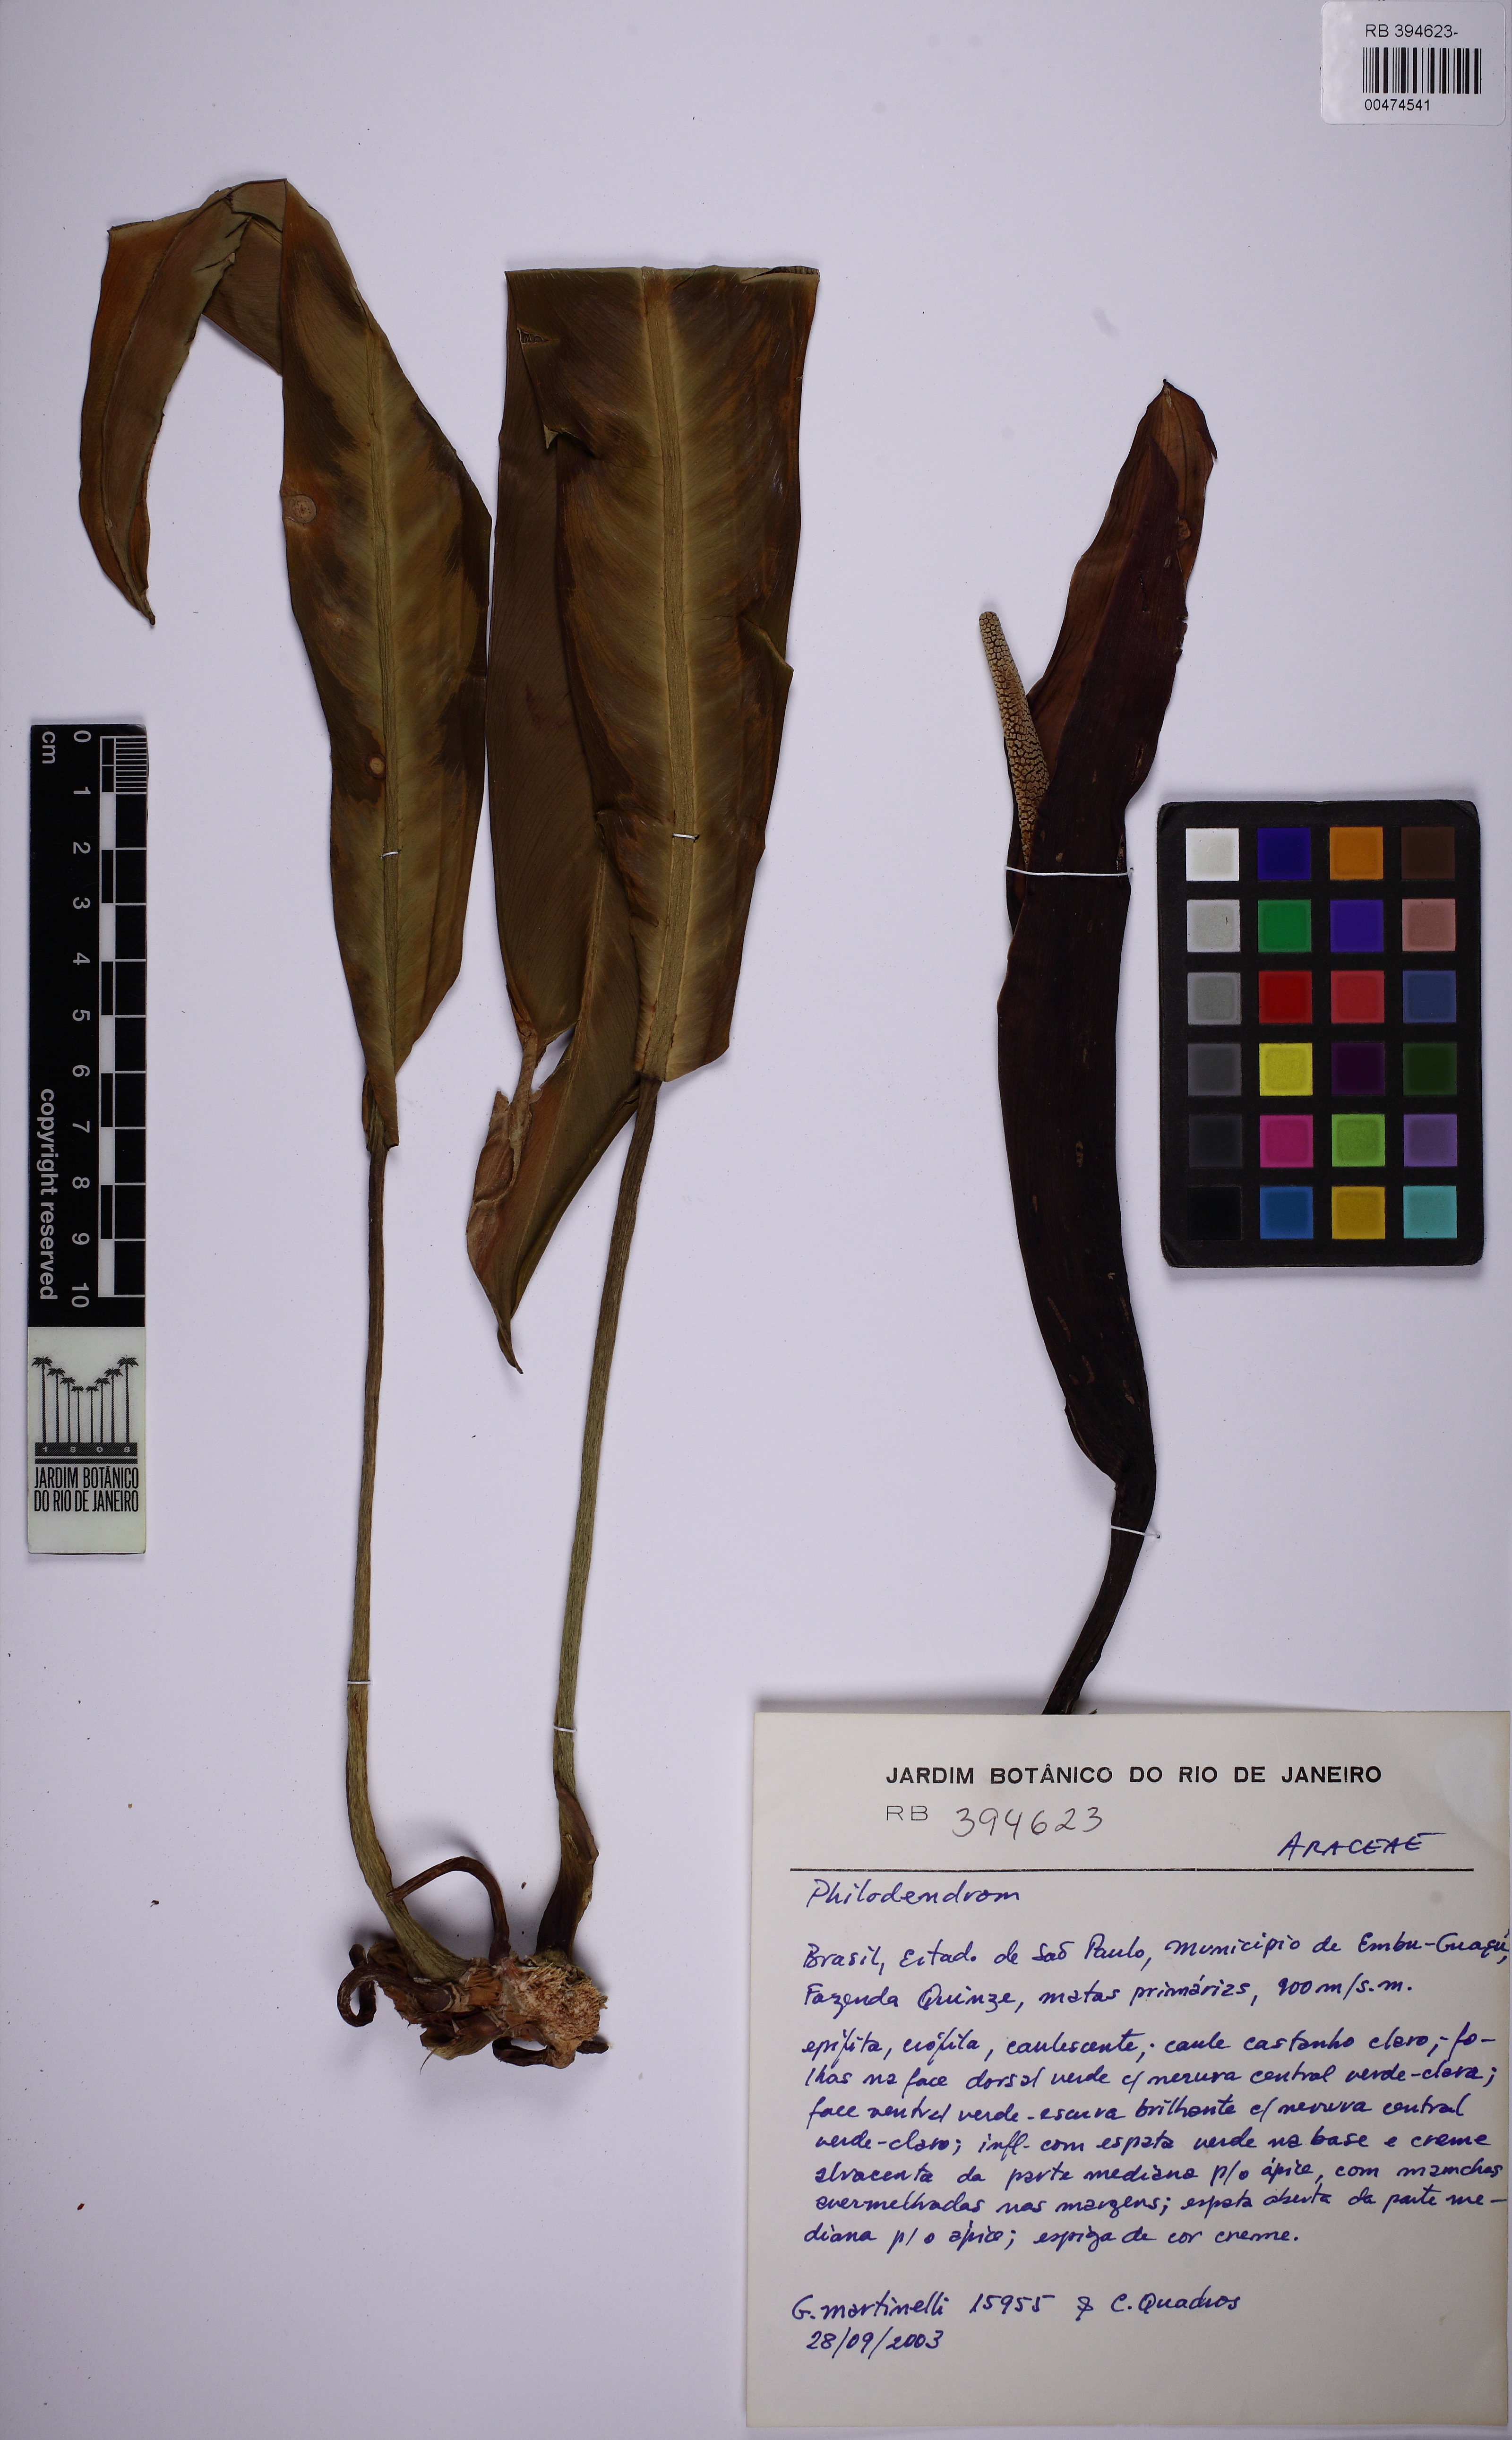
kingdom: Plantae
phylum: Tracheophyta
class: Liliopsida
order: Alismatales
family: Araceae
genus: Philodendron
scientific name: Philodendron glaziovii
